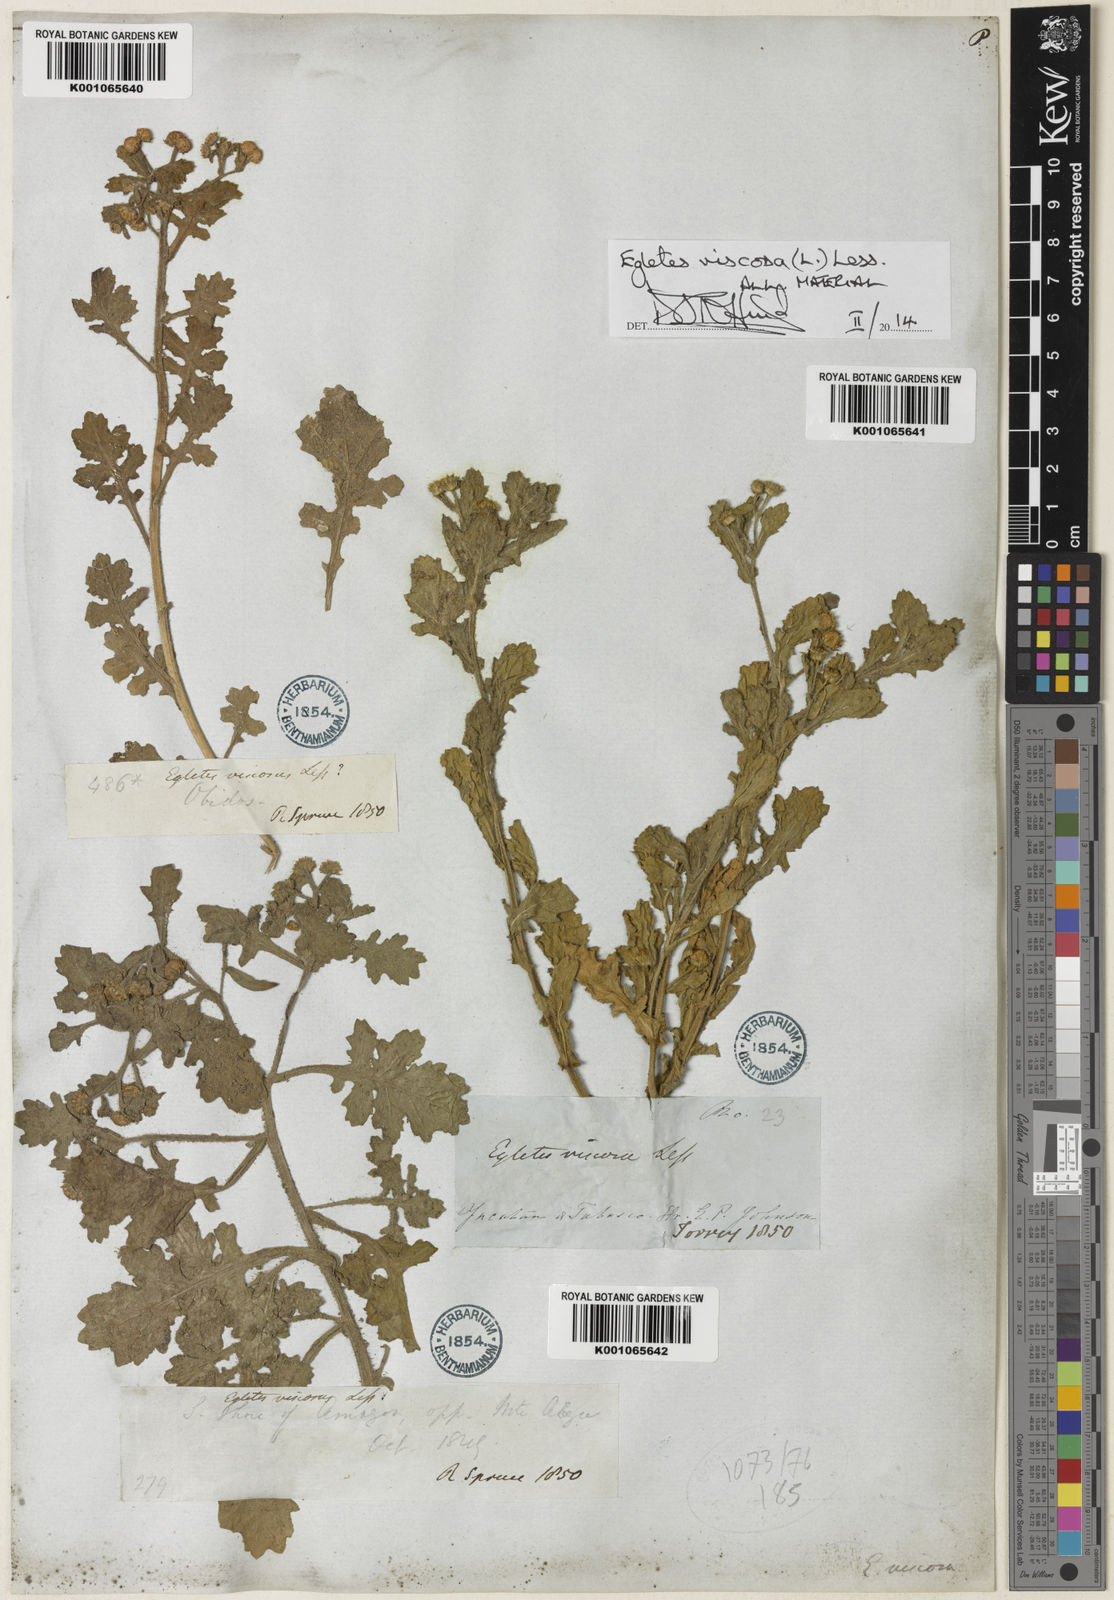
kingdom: Plantae
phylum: Tracheophyta
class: Magnoliopsida
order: Asterales
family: Asteraceae
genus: Egletes
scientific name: Egletes viscosa
